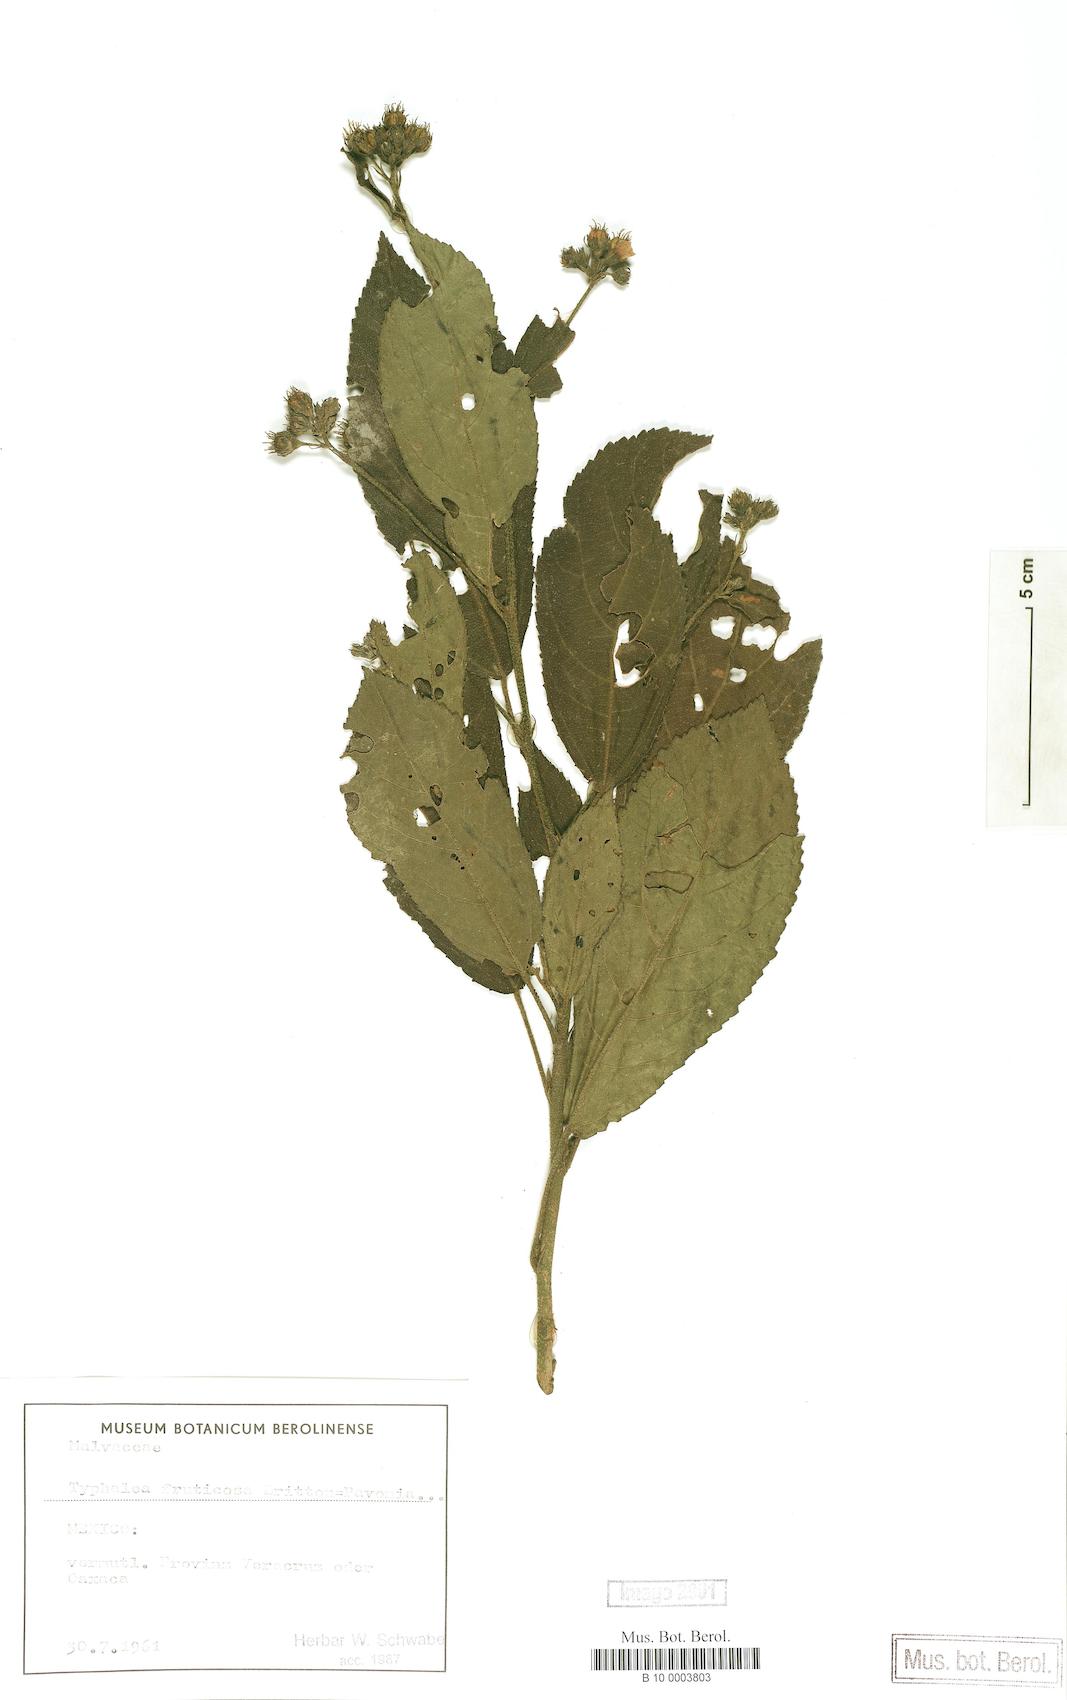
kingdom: Plantae
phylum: Tracheophyta
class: Magnoliopsida
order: Malvales
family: Malvaceae
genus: Pavonia
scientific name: Pavonia
